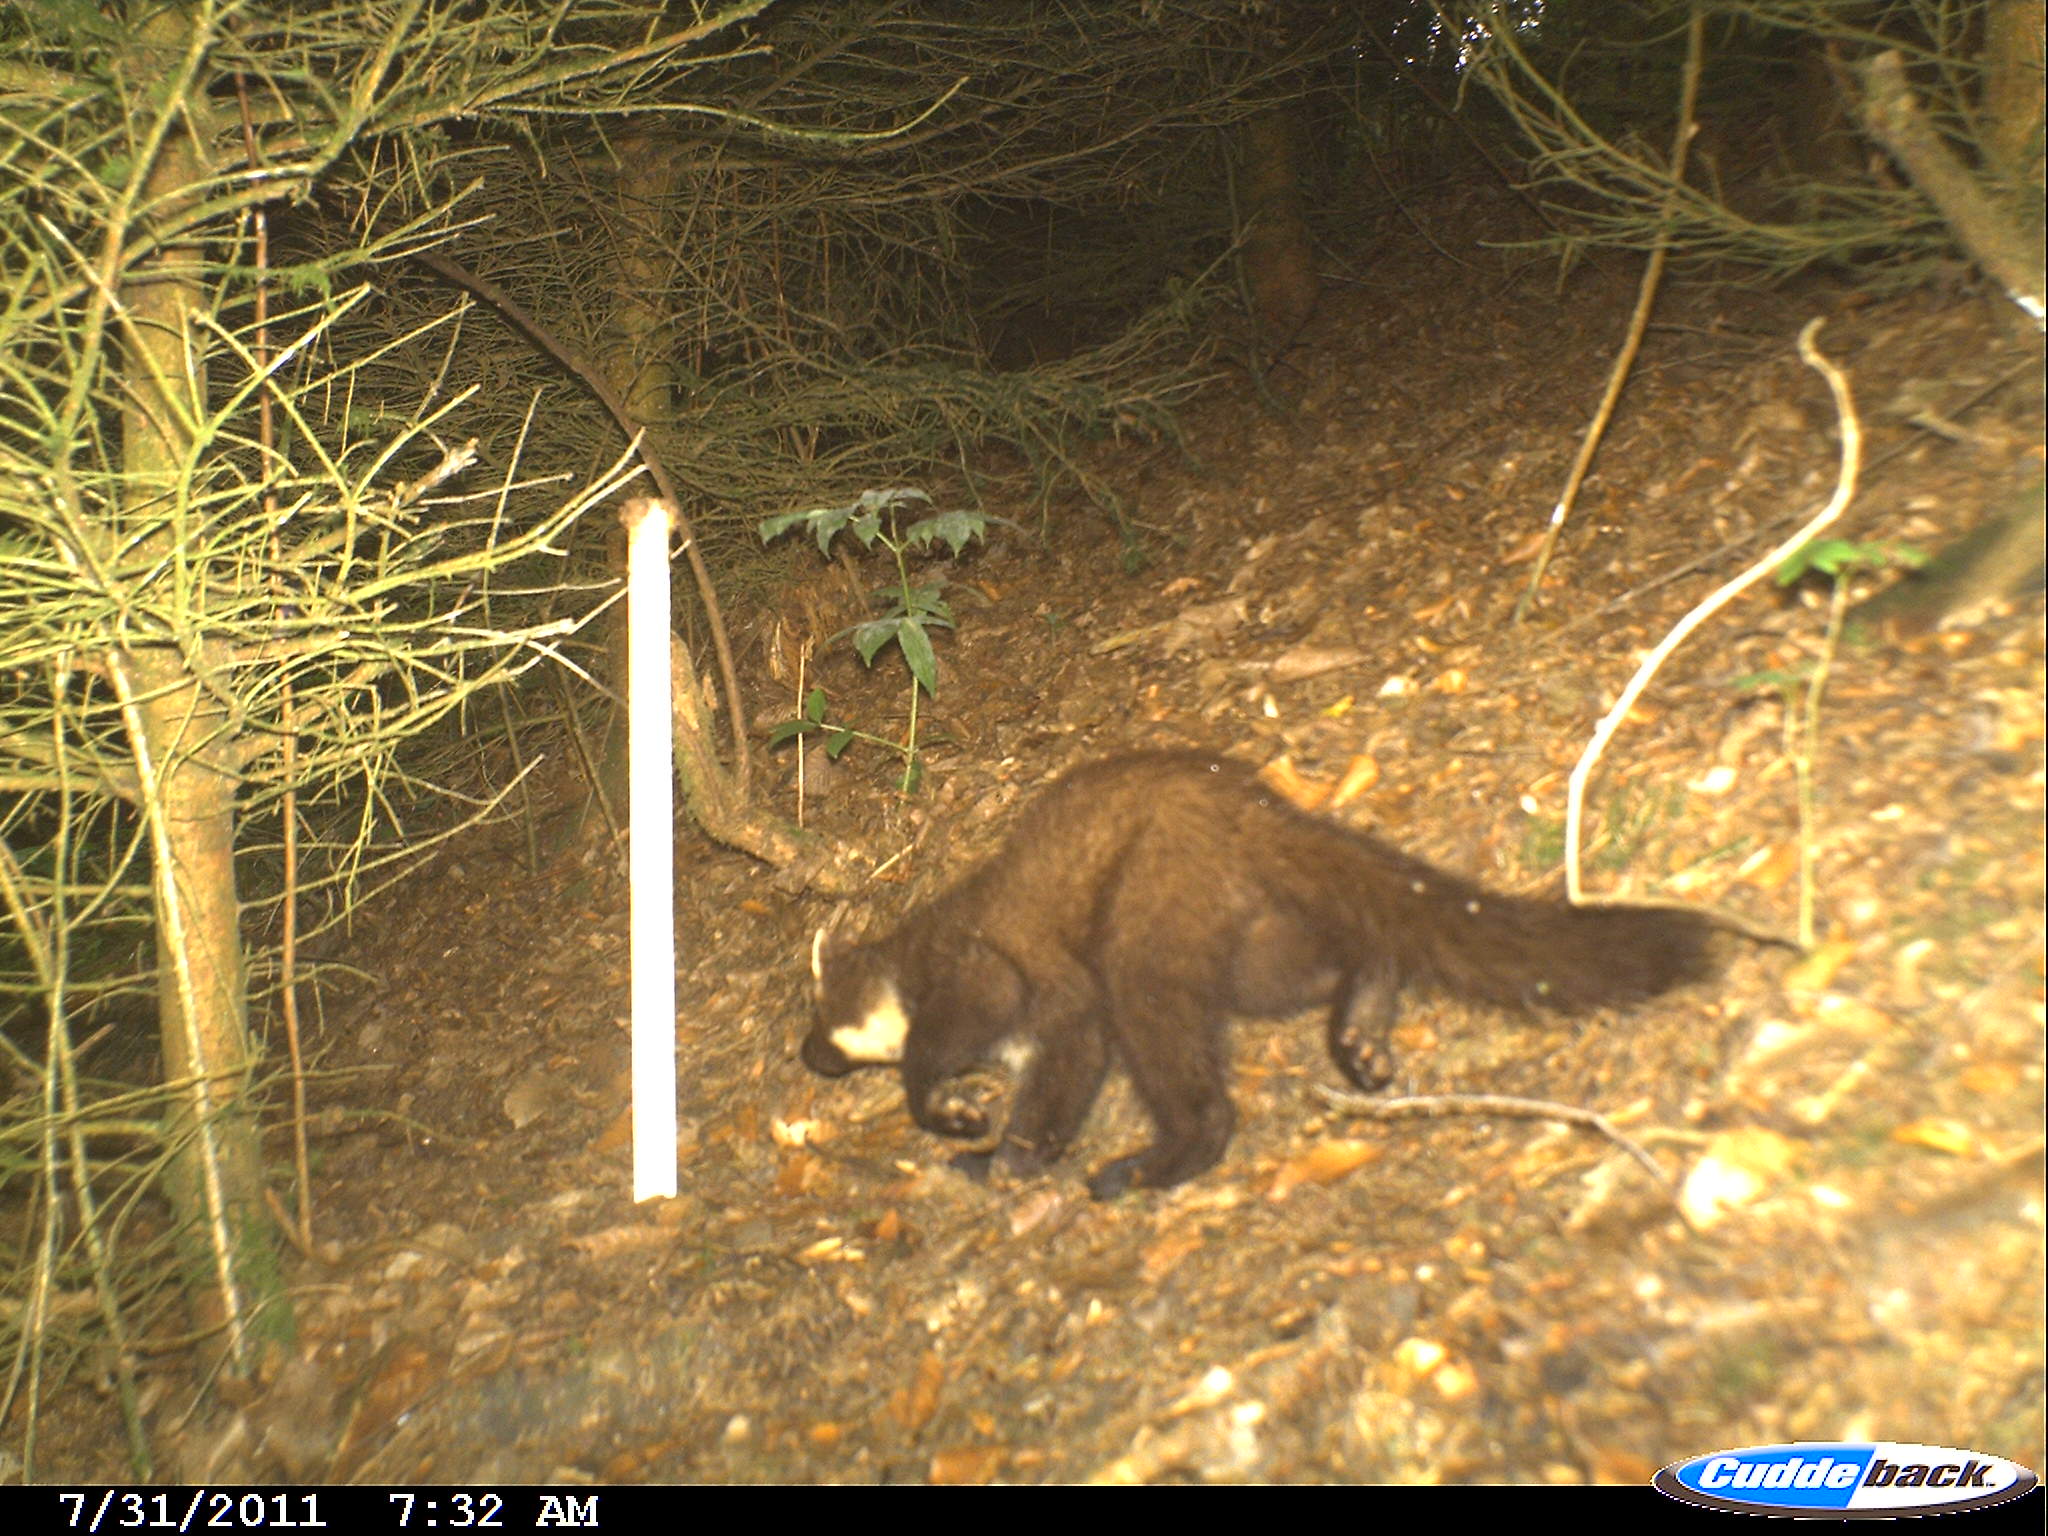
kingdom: Animalia
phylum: Chordata
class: Mammalia
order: Carnivora
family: Mustelidae
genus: Martes
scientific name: Martes martes
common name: European pine marten
